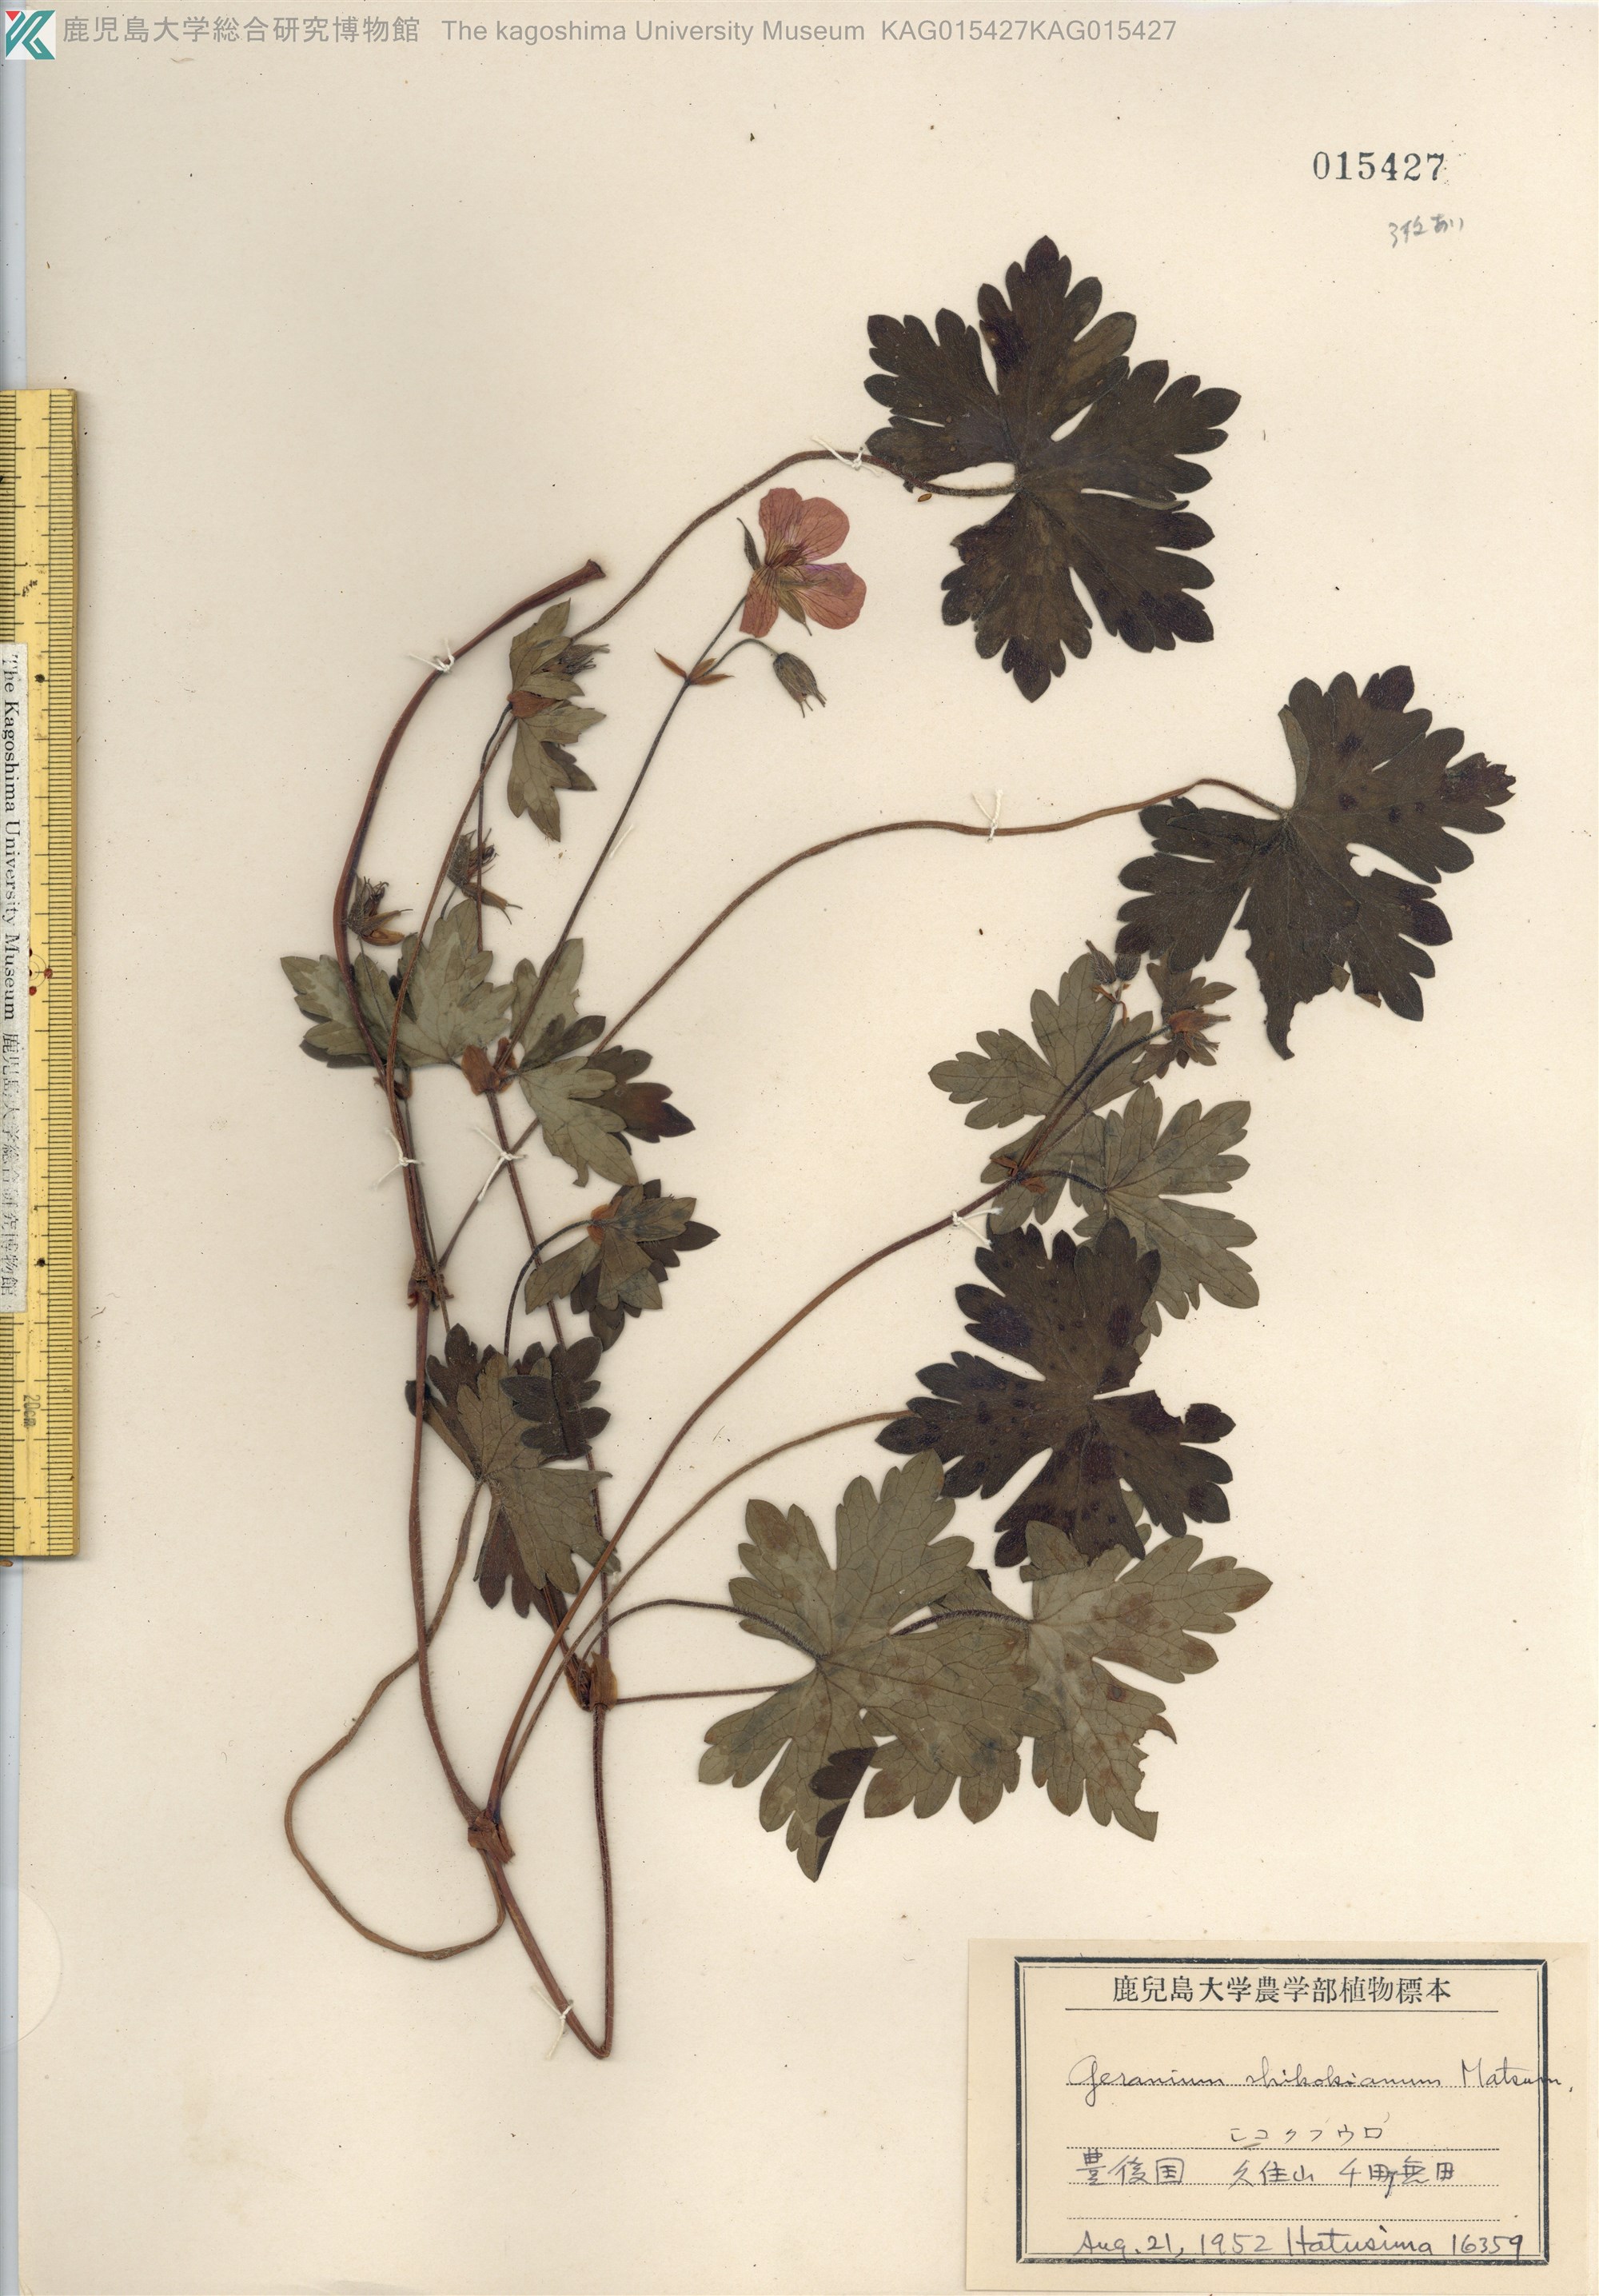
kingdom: Plantae
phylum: Tracheophyta
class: Magnoliopsida
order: Geraniales
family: Geraniaceae
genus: Geranium
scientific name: Geranium shikokianum
